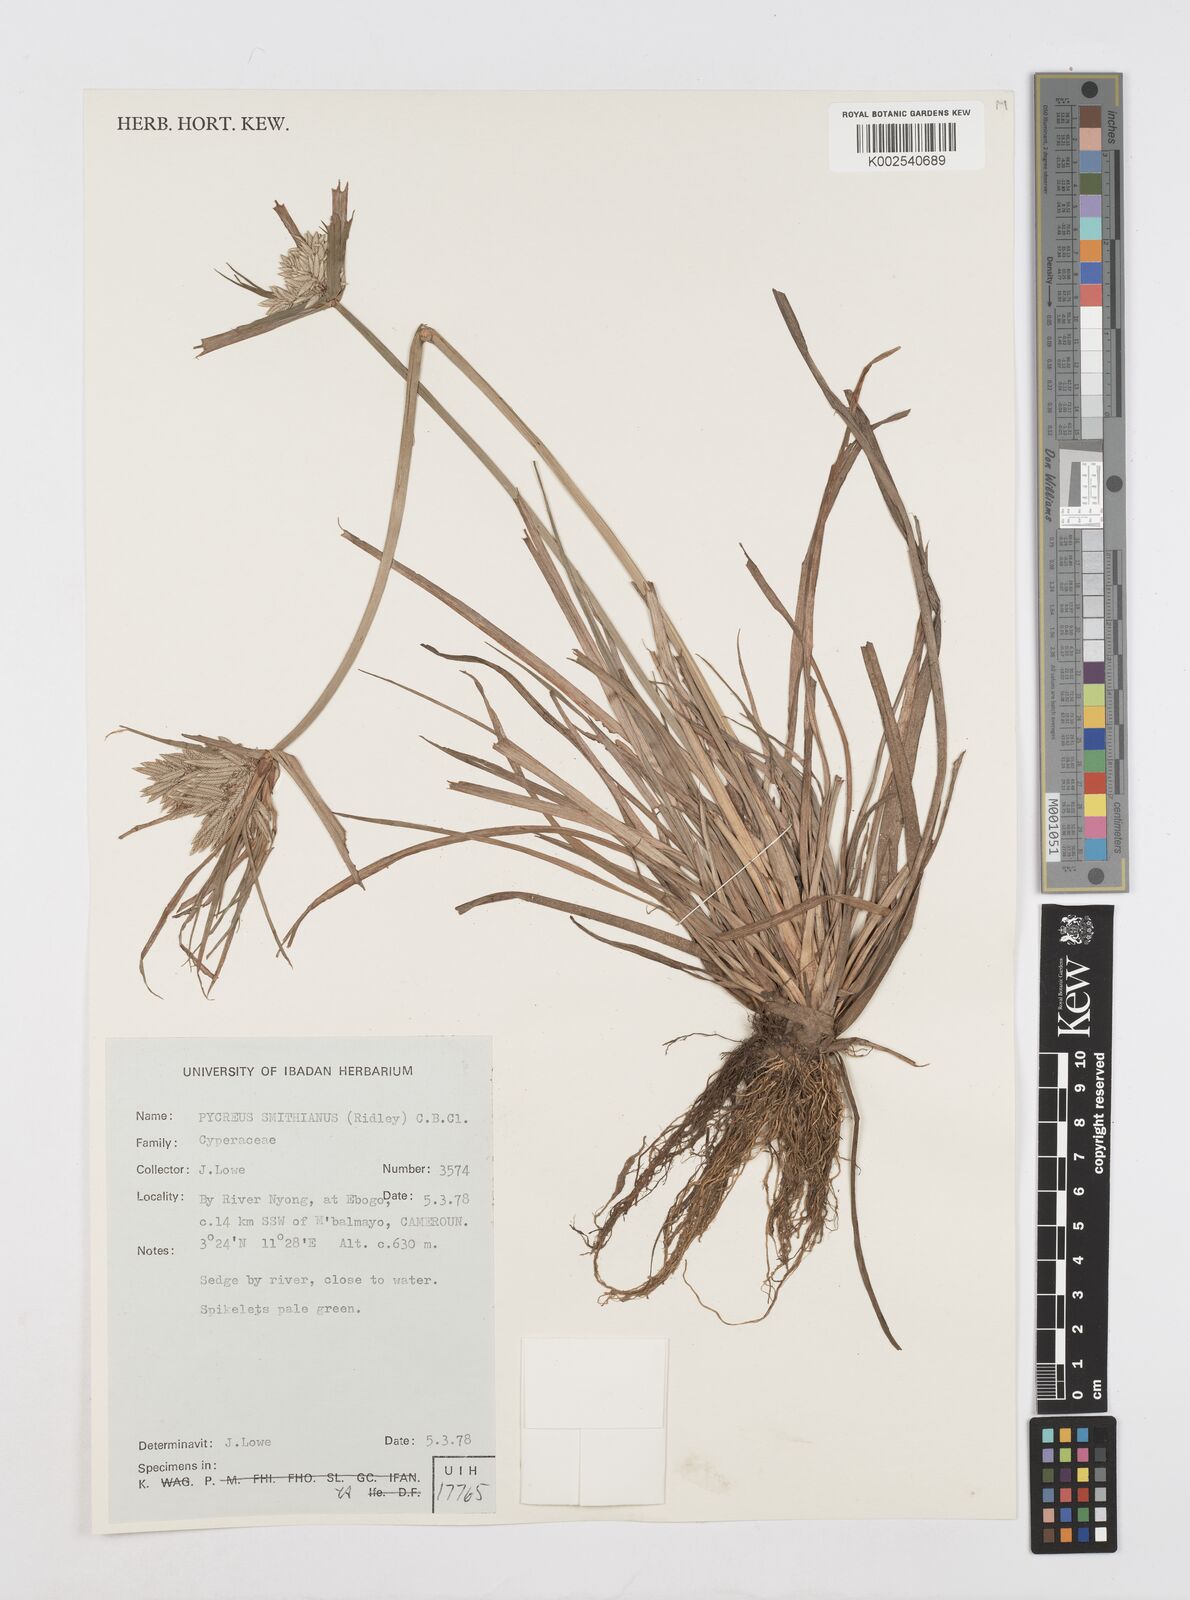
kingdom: Plantae
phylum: Tracheophyta
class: Liliopsida
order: Poales
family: Cyperaceae
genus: Cyperus
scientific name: Cyperus smithianus
